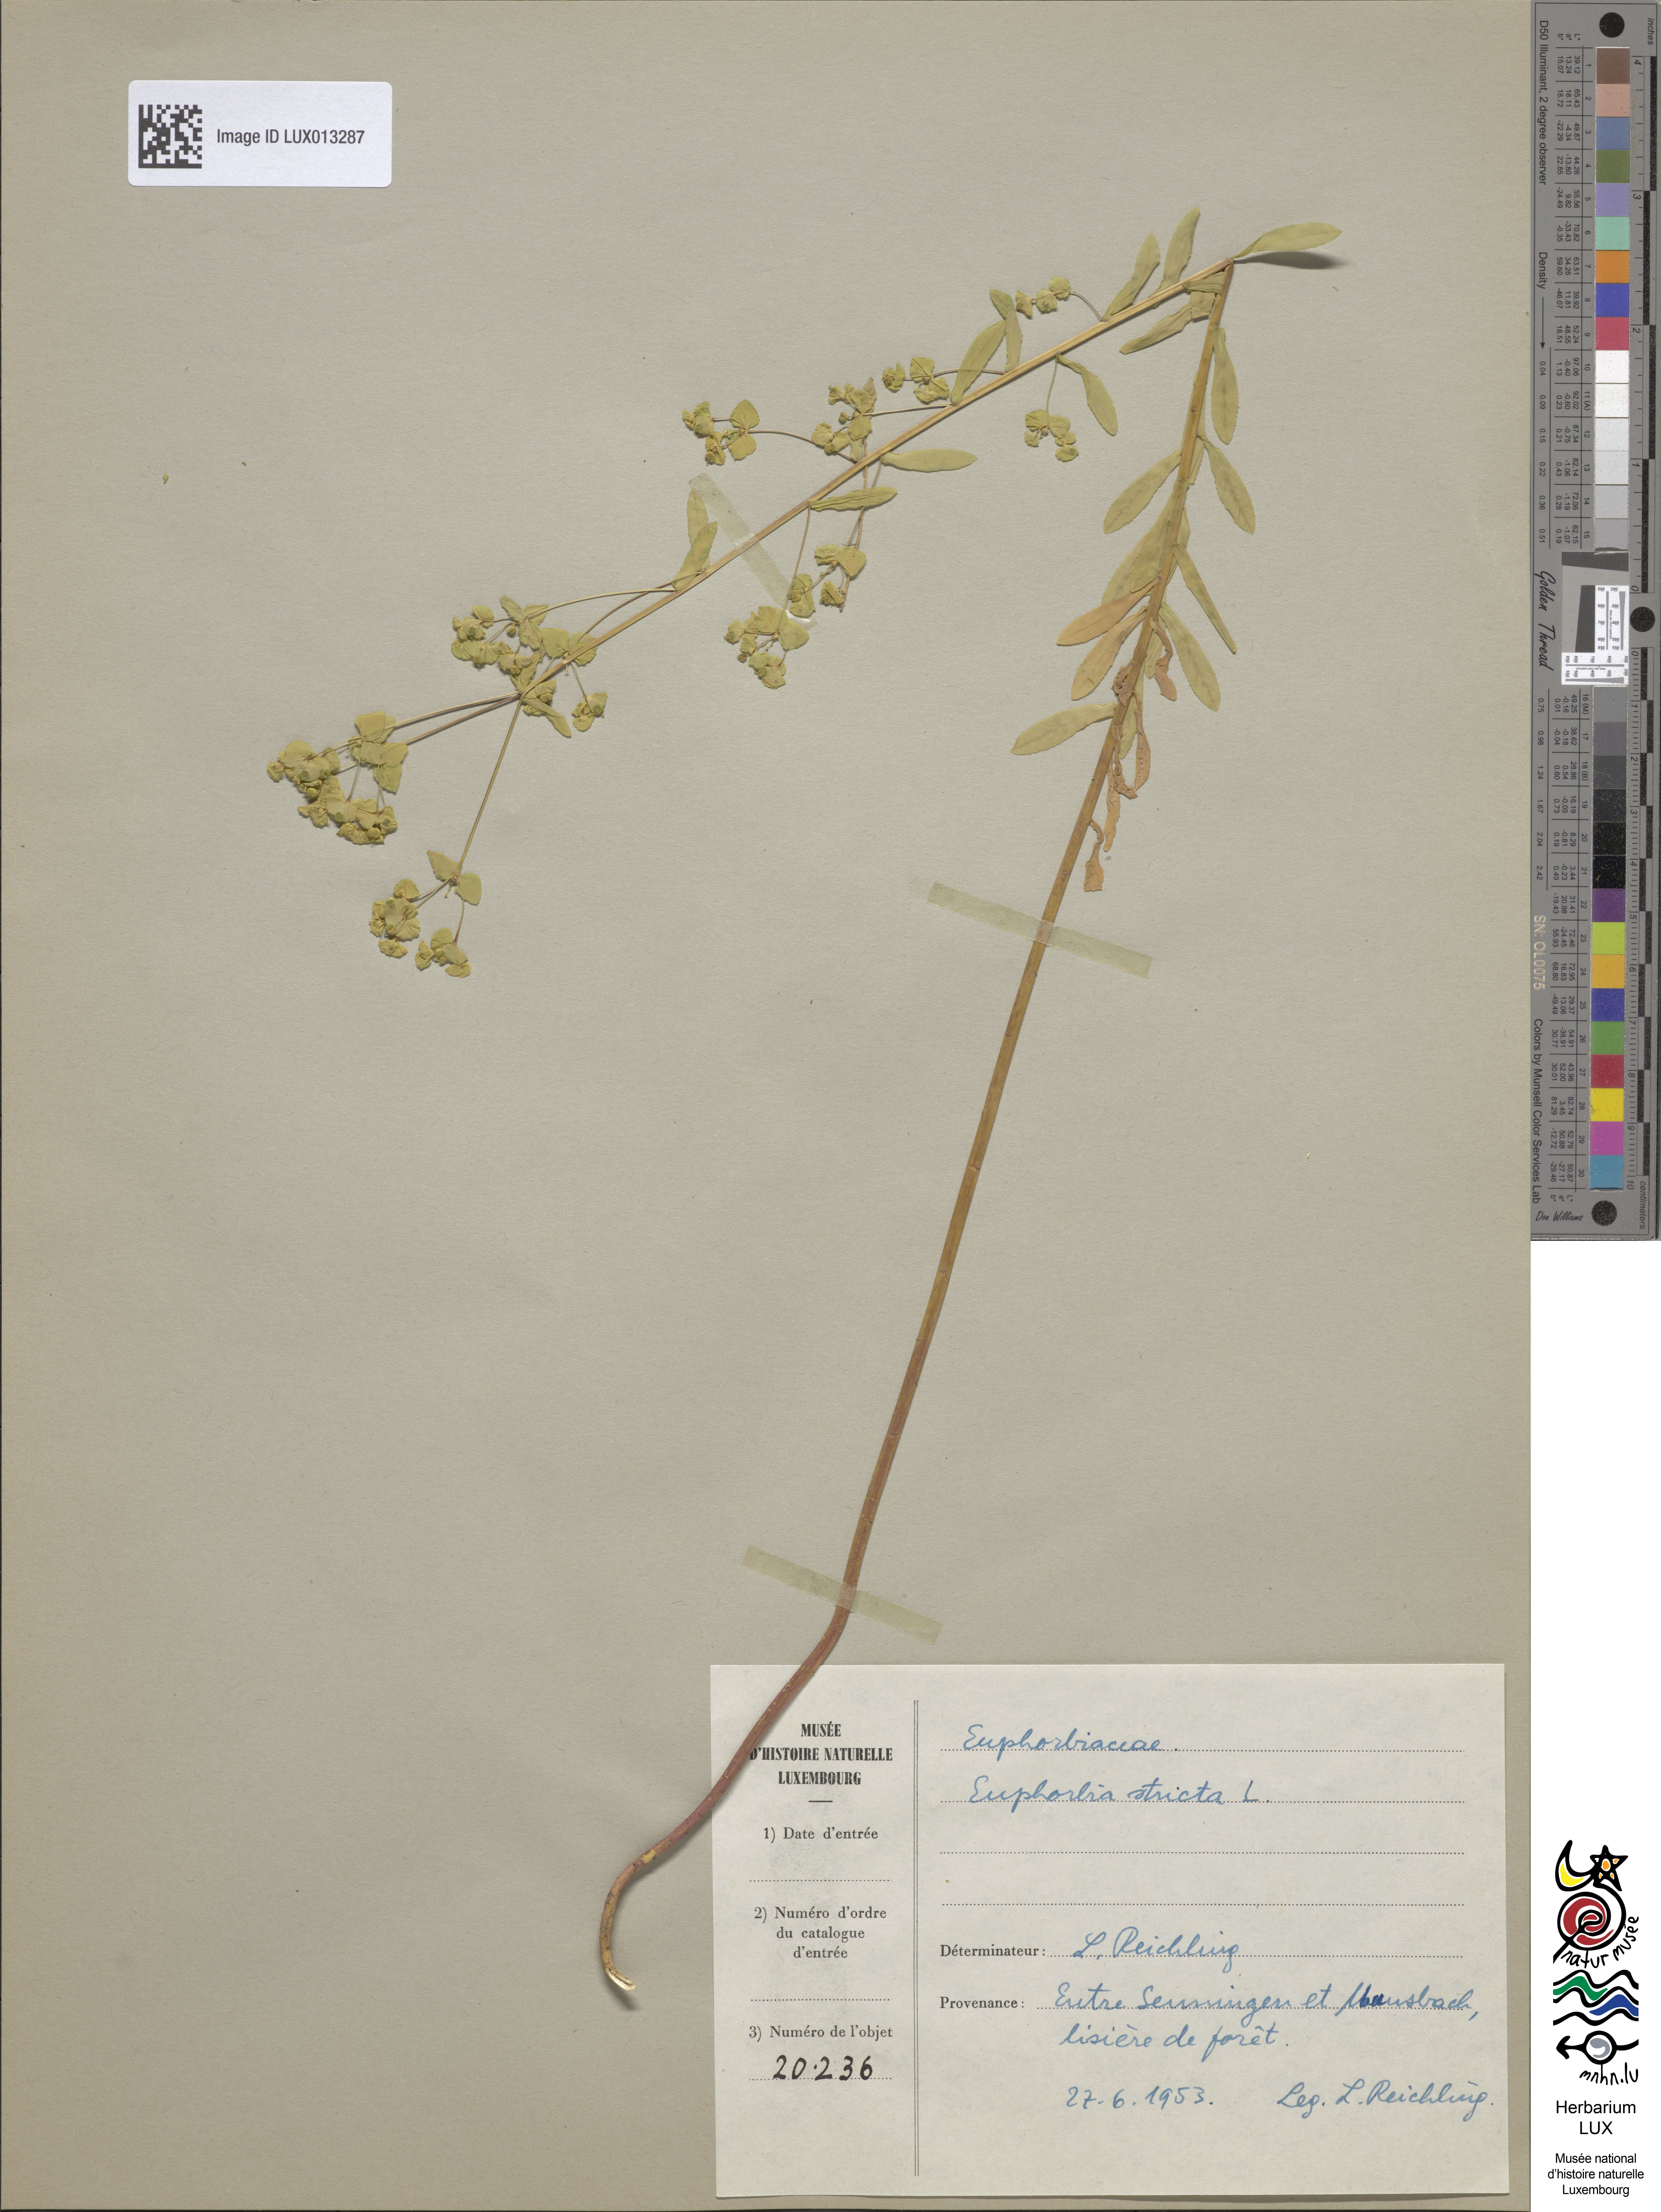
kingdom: Plantae
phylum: Tracheophyta
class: Magnoliopsida
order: Malpighiales
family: Euphorbiaceae
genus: Euphorbia
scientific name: Euphorbia stricta
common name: Upright spurge
